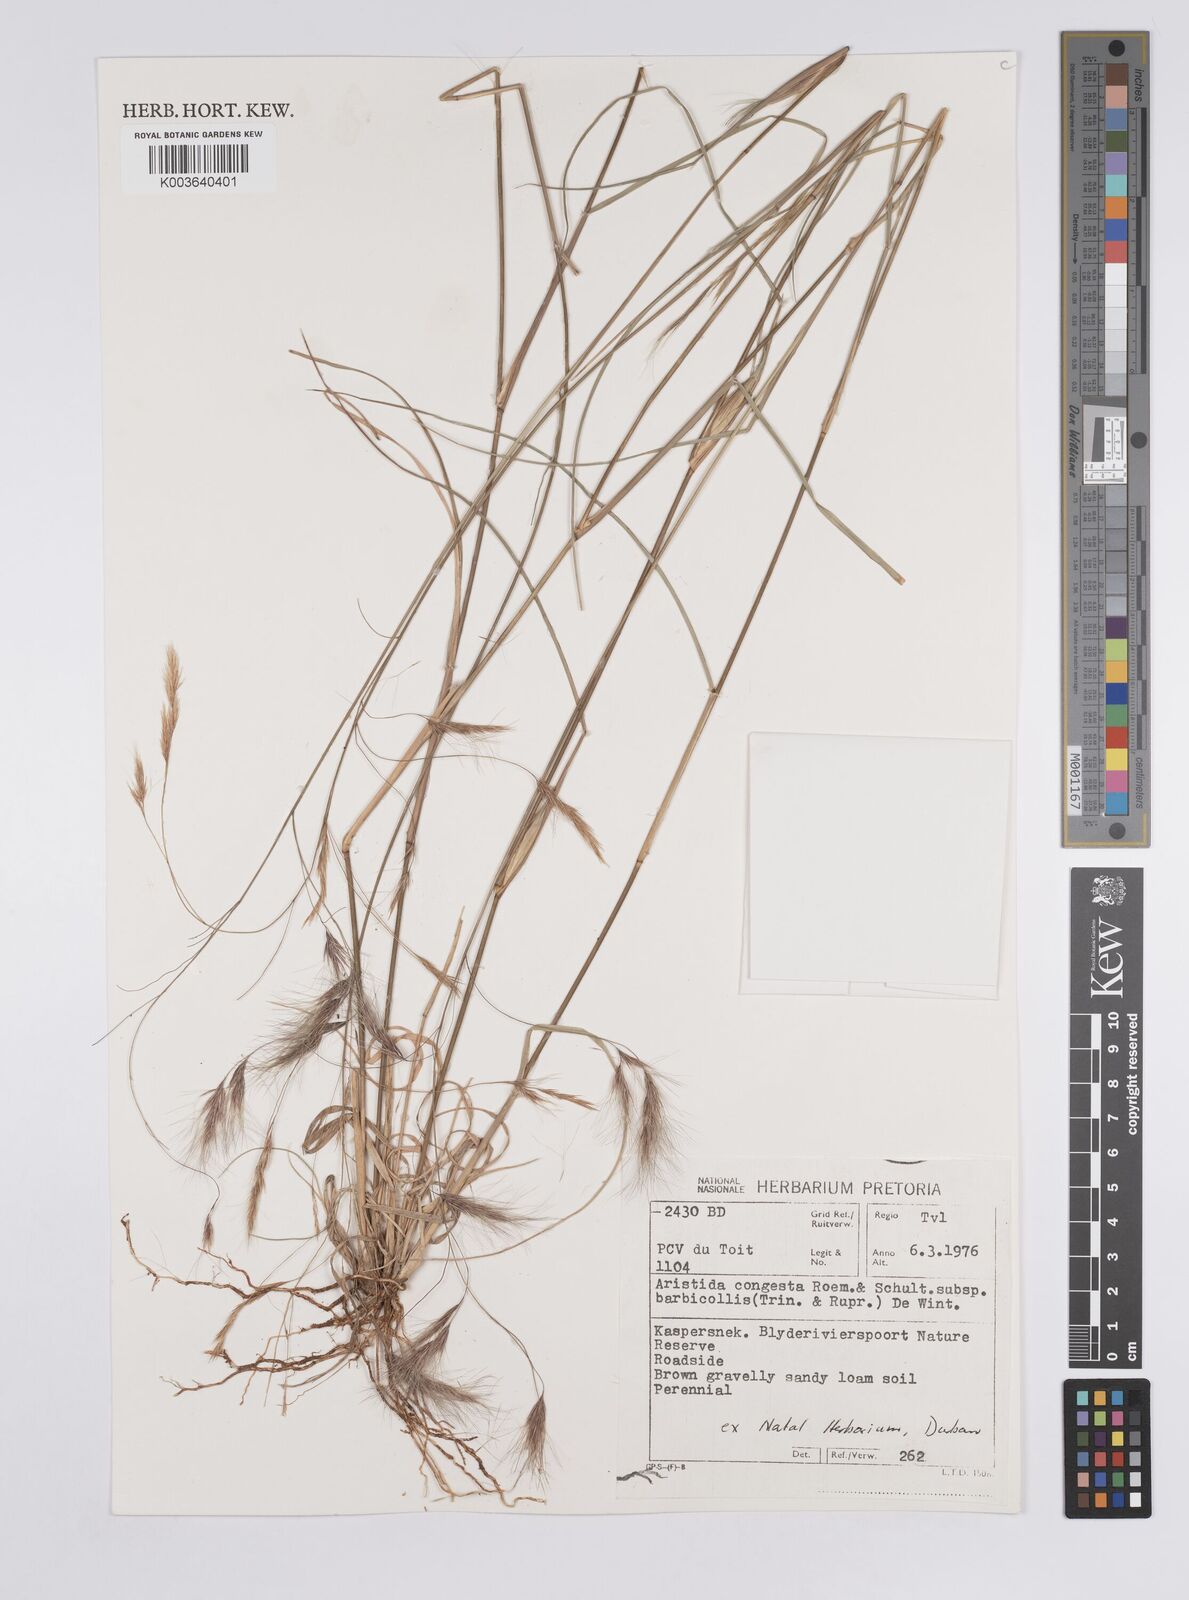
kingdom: Plantae
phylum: Tracheophyta
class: Liliopsida
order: Poales
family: Poaceae
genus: Aristida
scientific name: Aristida barbicollis
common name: Spreading prickle grass
